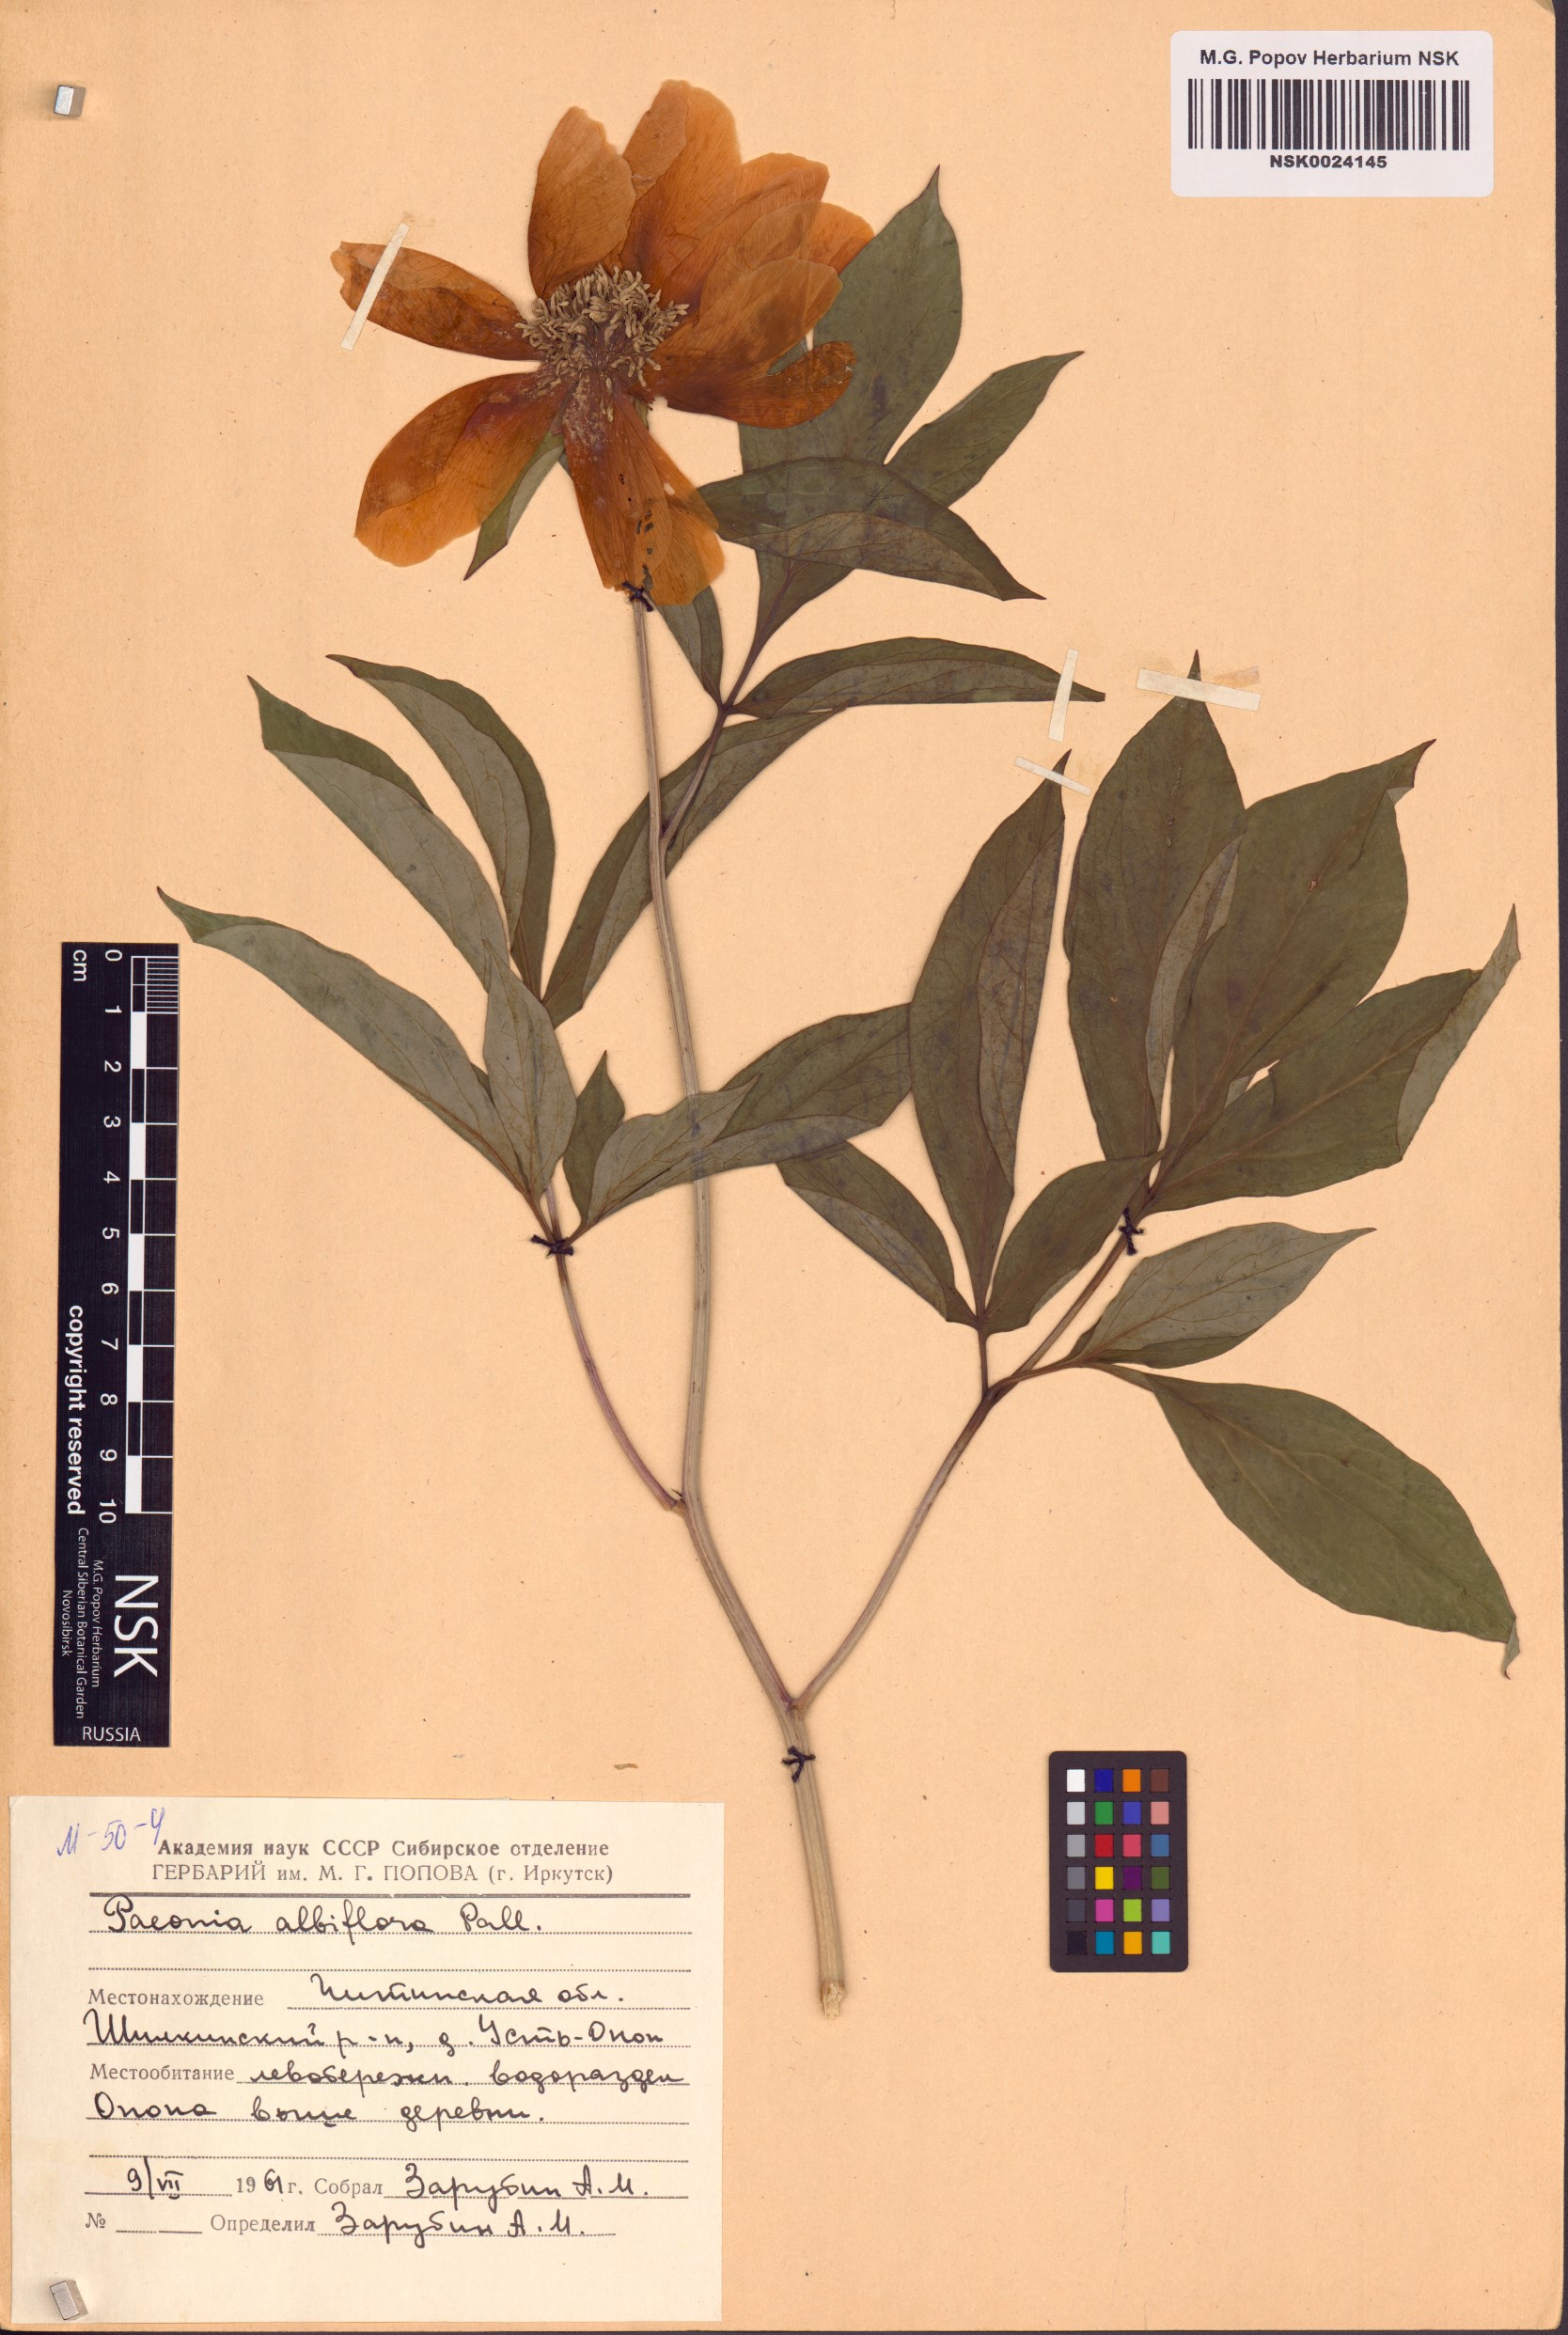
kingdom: Plantae
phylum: Tracheophyta
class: Magnoliopsida
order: Saxifragales
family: Paeoniaceae
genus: Paeonia
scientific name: Paeonia lactiflora
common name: Chinese peony
